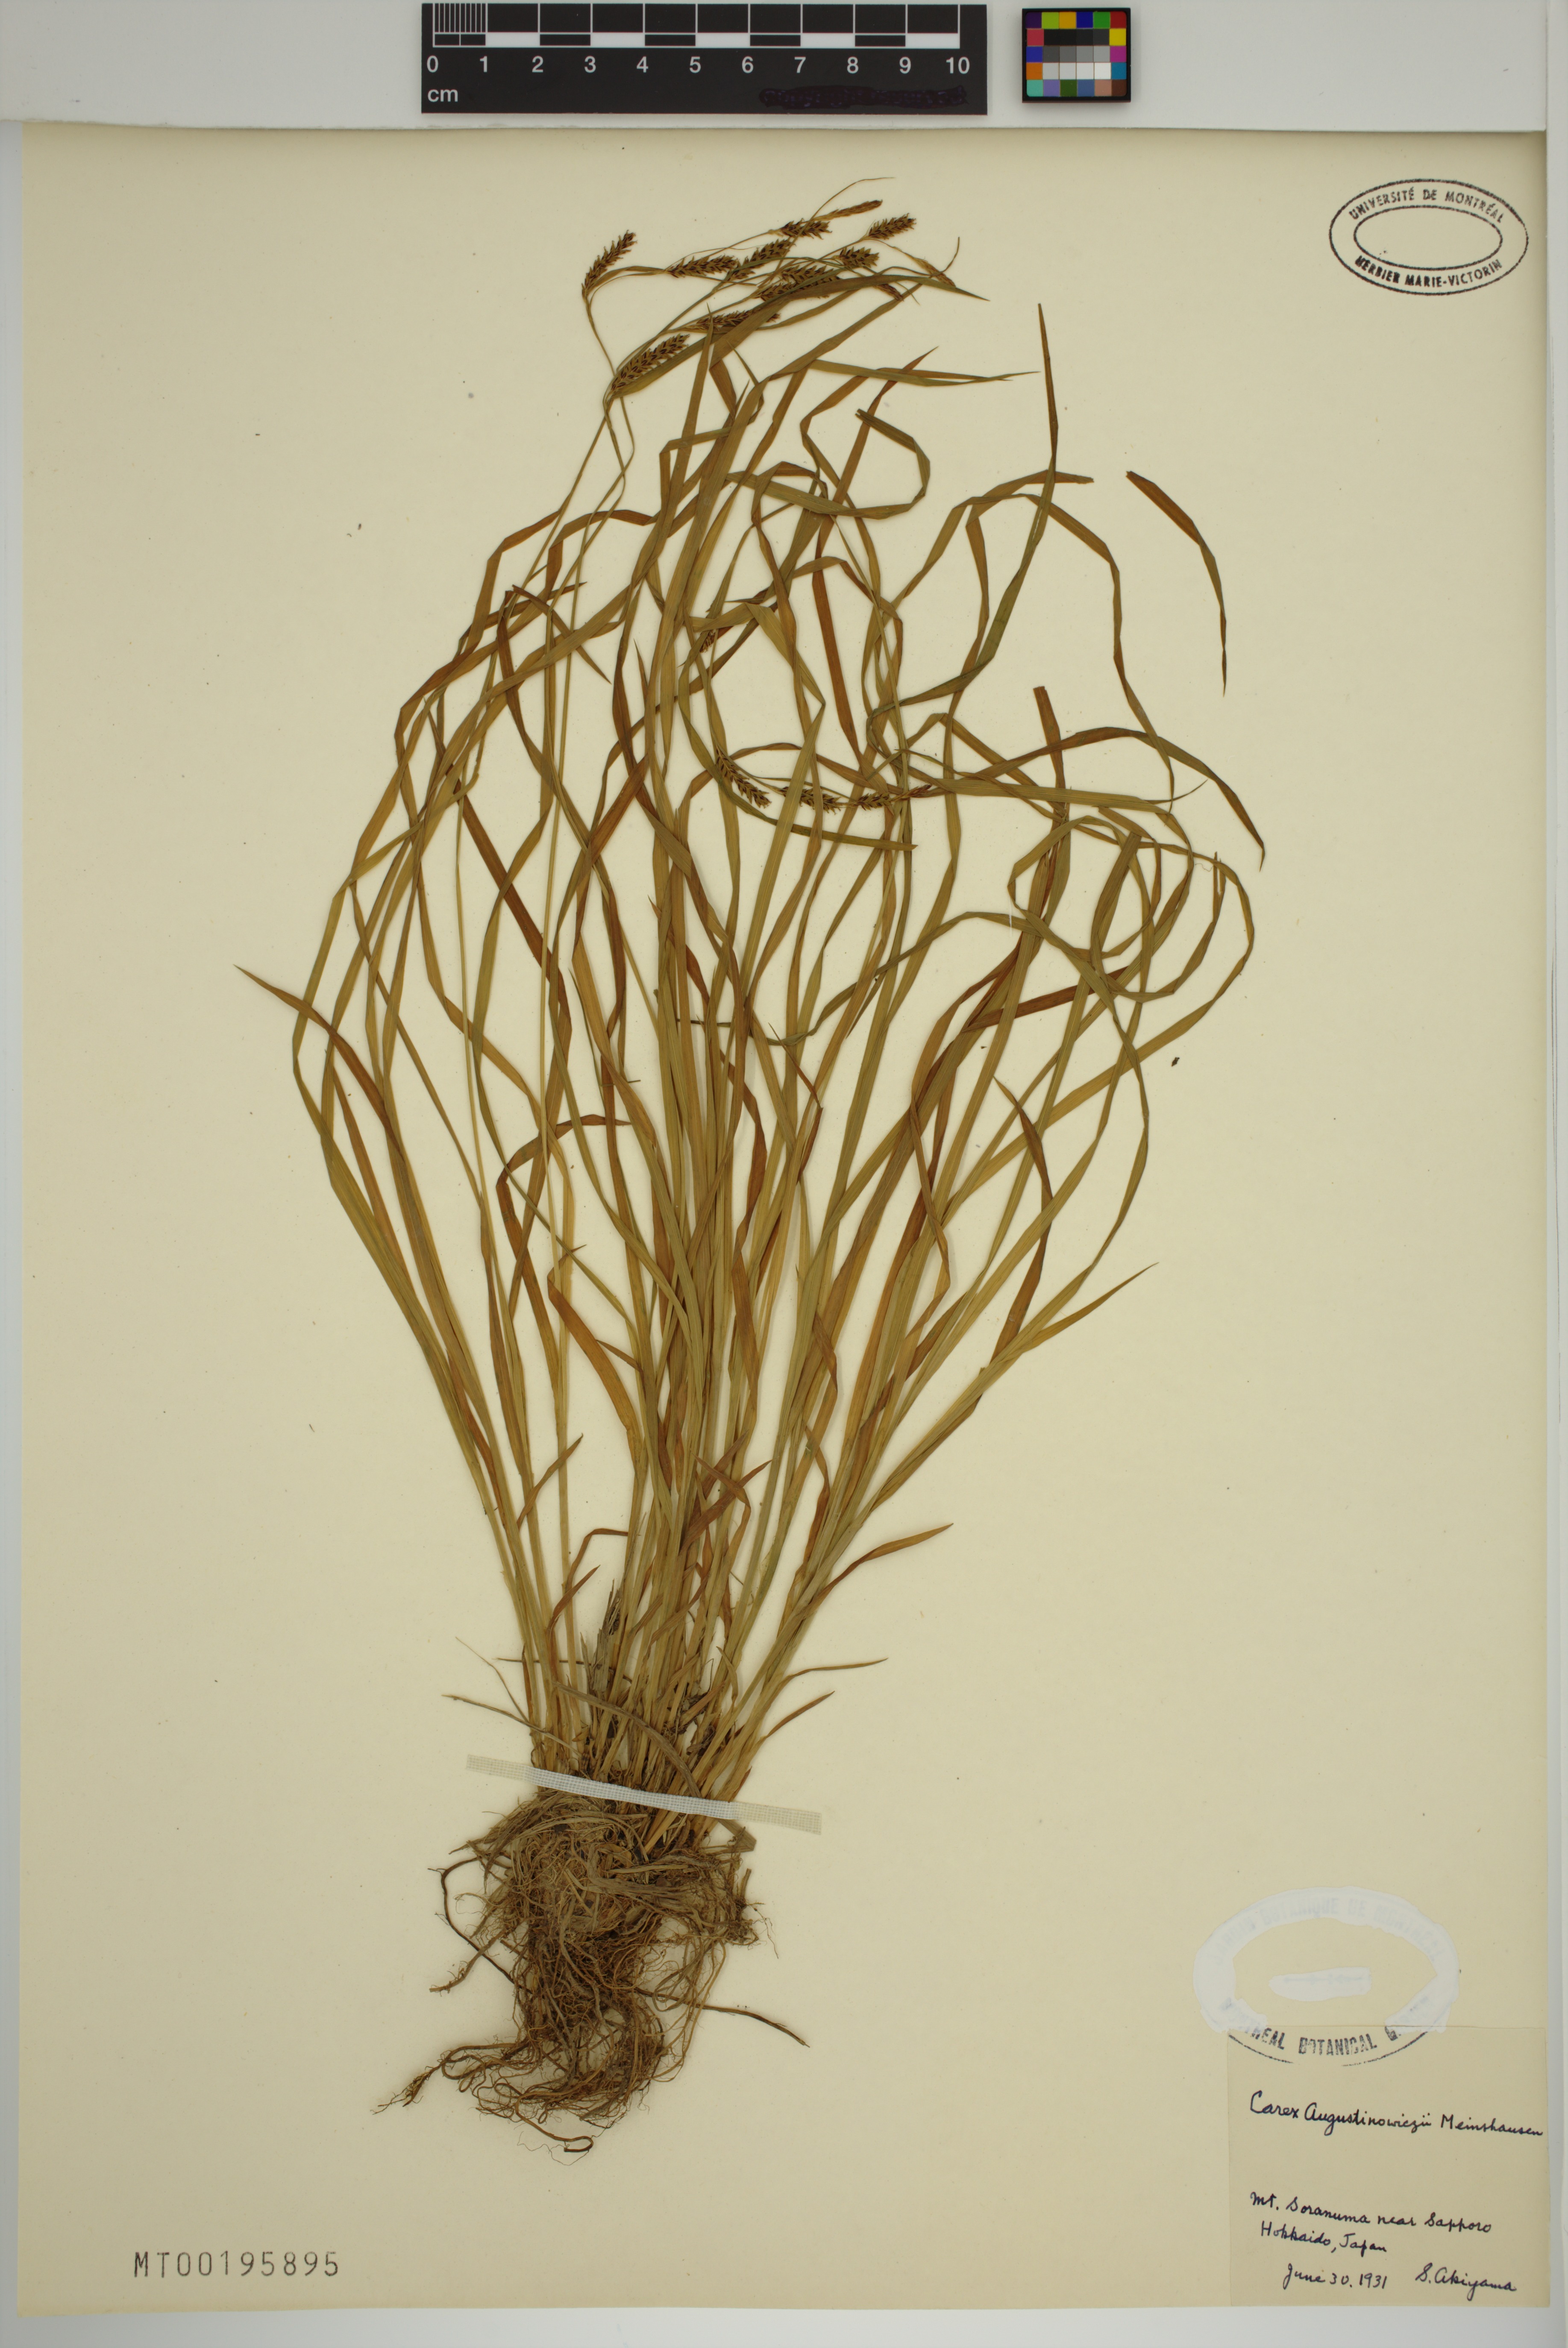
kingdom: Plantae
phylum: Tracheophyta
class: Liliopsida
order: Poales
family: Cyperaceae
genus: Carex
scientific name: Carex augustinowiczii
